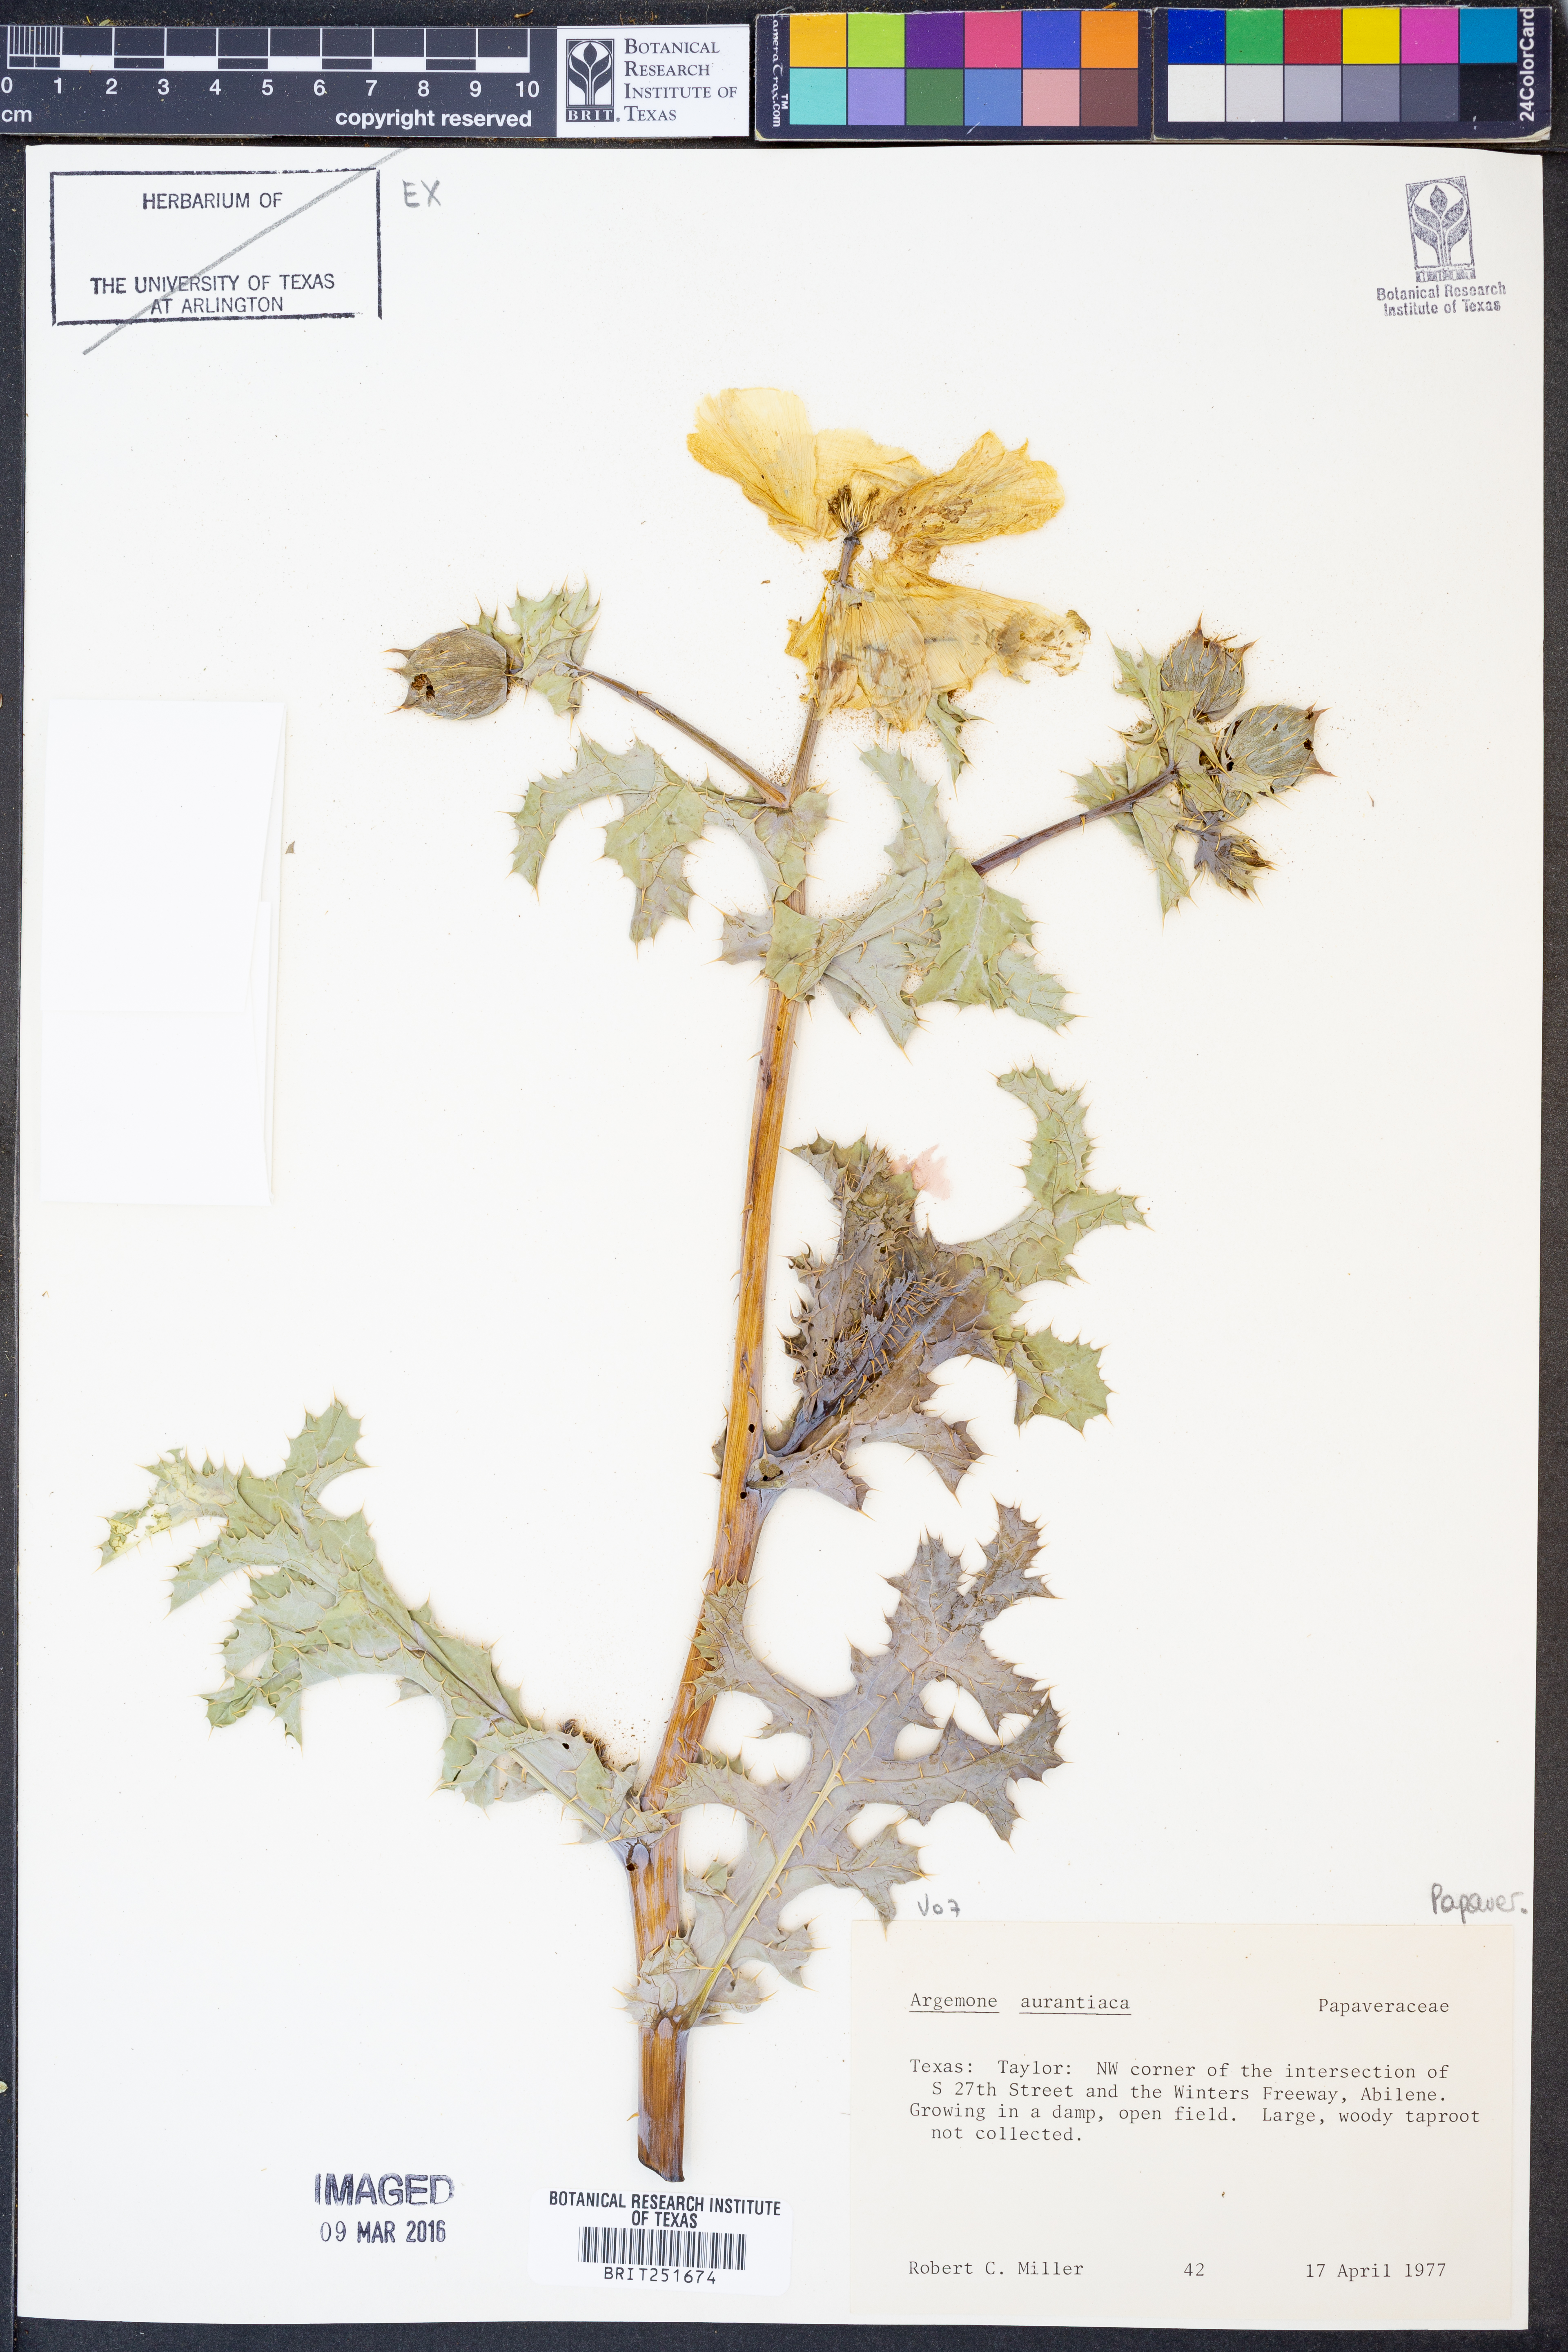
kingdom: Plantae
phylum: Tracheophyta
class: Magnoliopsida
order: Ranunculales
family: Papaveraceae
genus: Argemone
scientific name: Argemone aurantiaca
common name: Texas prickly-poppy
